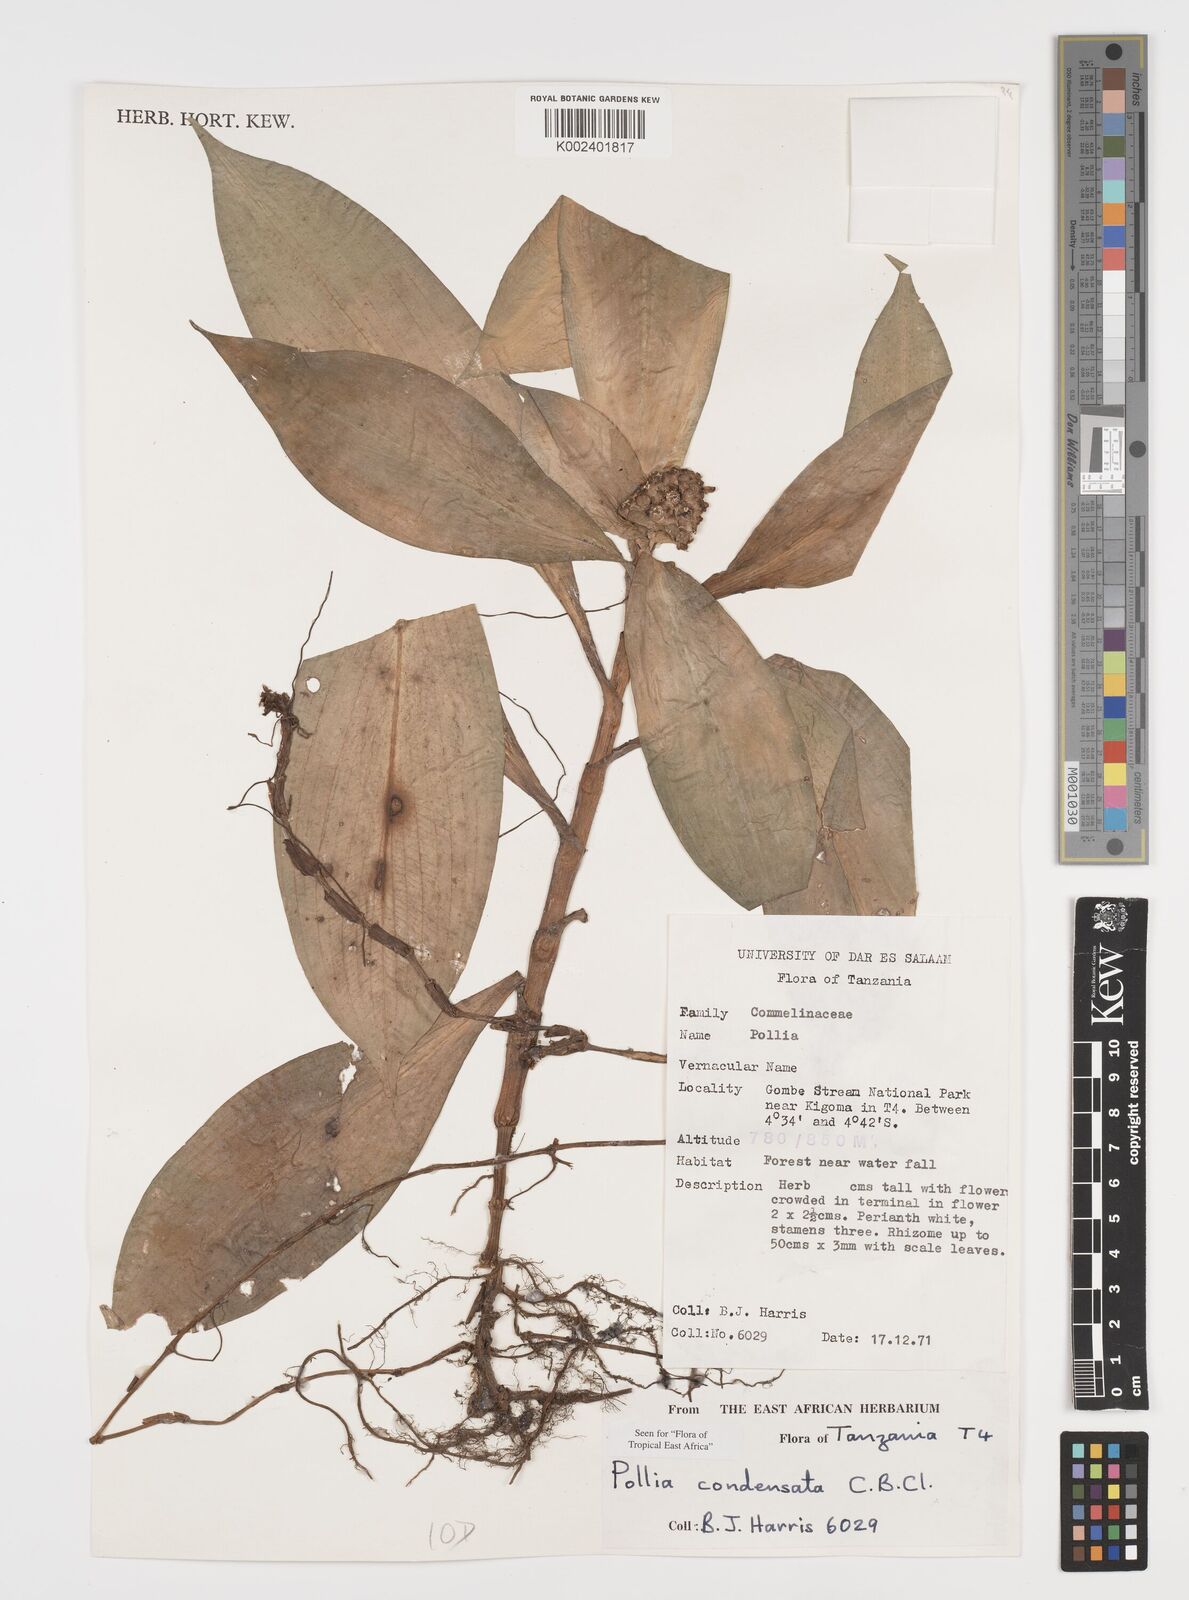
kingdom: Plantae
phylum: Tracheophyta
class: Liliopsida
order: Commelinales
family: Commelinaceae
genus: Pollia
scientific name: Pollia condensata
